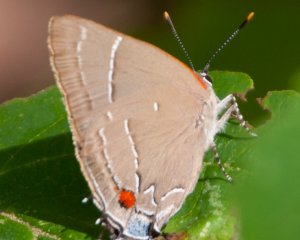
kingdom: Animalia
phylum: Arthropoda
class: Insecta
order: Lepidoptera
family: Lycaenidae
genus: Parrhasius
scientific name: Parrhasius m-album
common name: White-m Hairstreak
